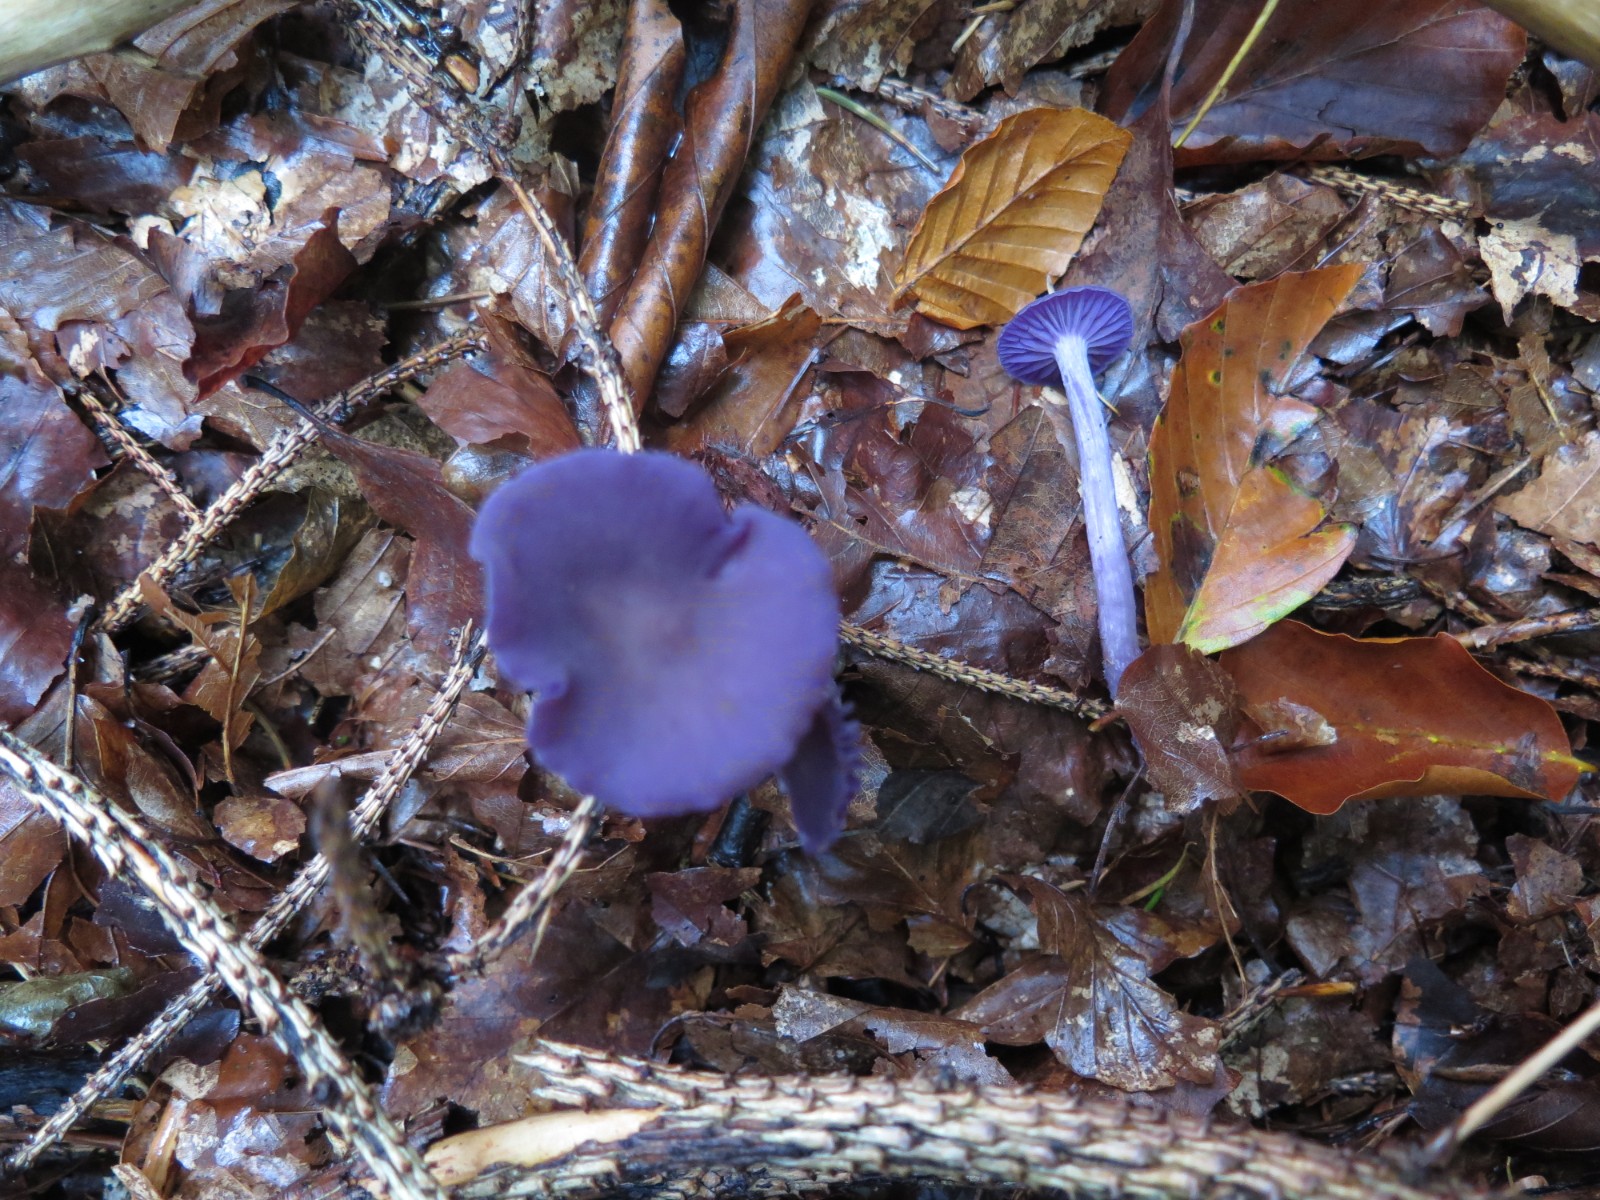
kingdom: Fungi
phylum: Basidiomycota
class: Agaricomycetes
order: Agaricales
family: Hydnangiaceae
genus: Laccaria
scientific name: Laccaria amethystina
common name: violet ametysthat
